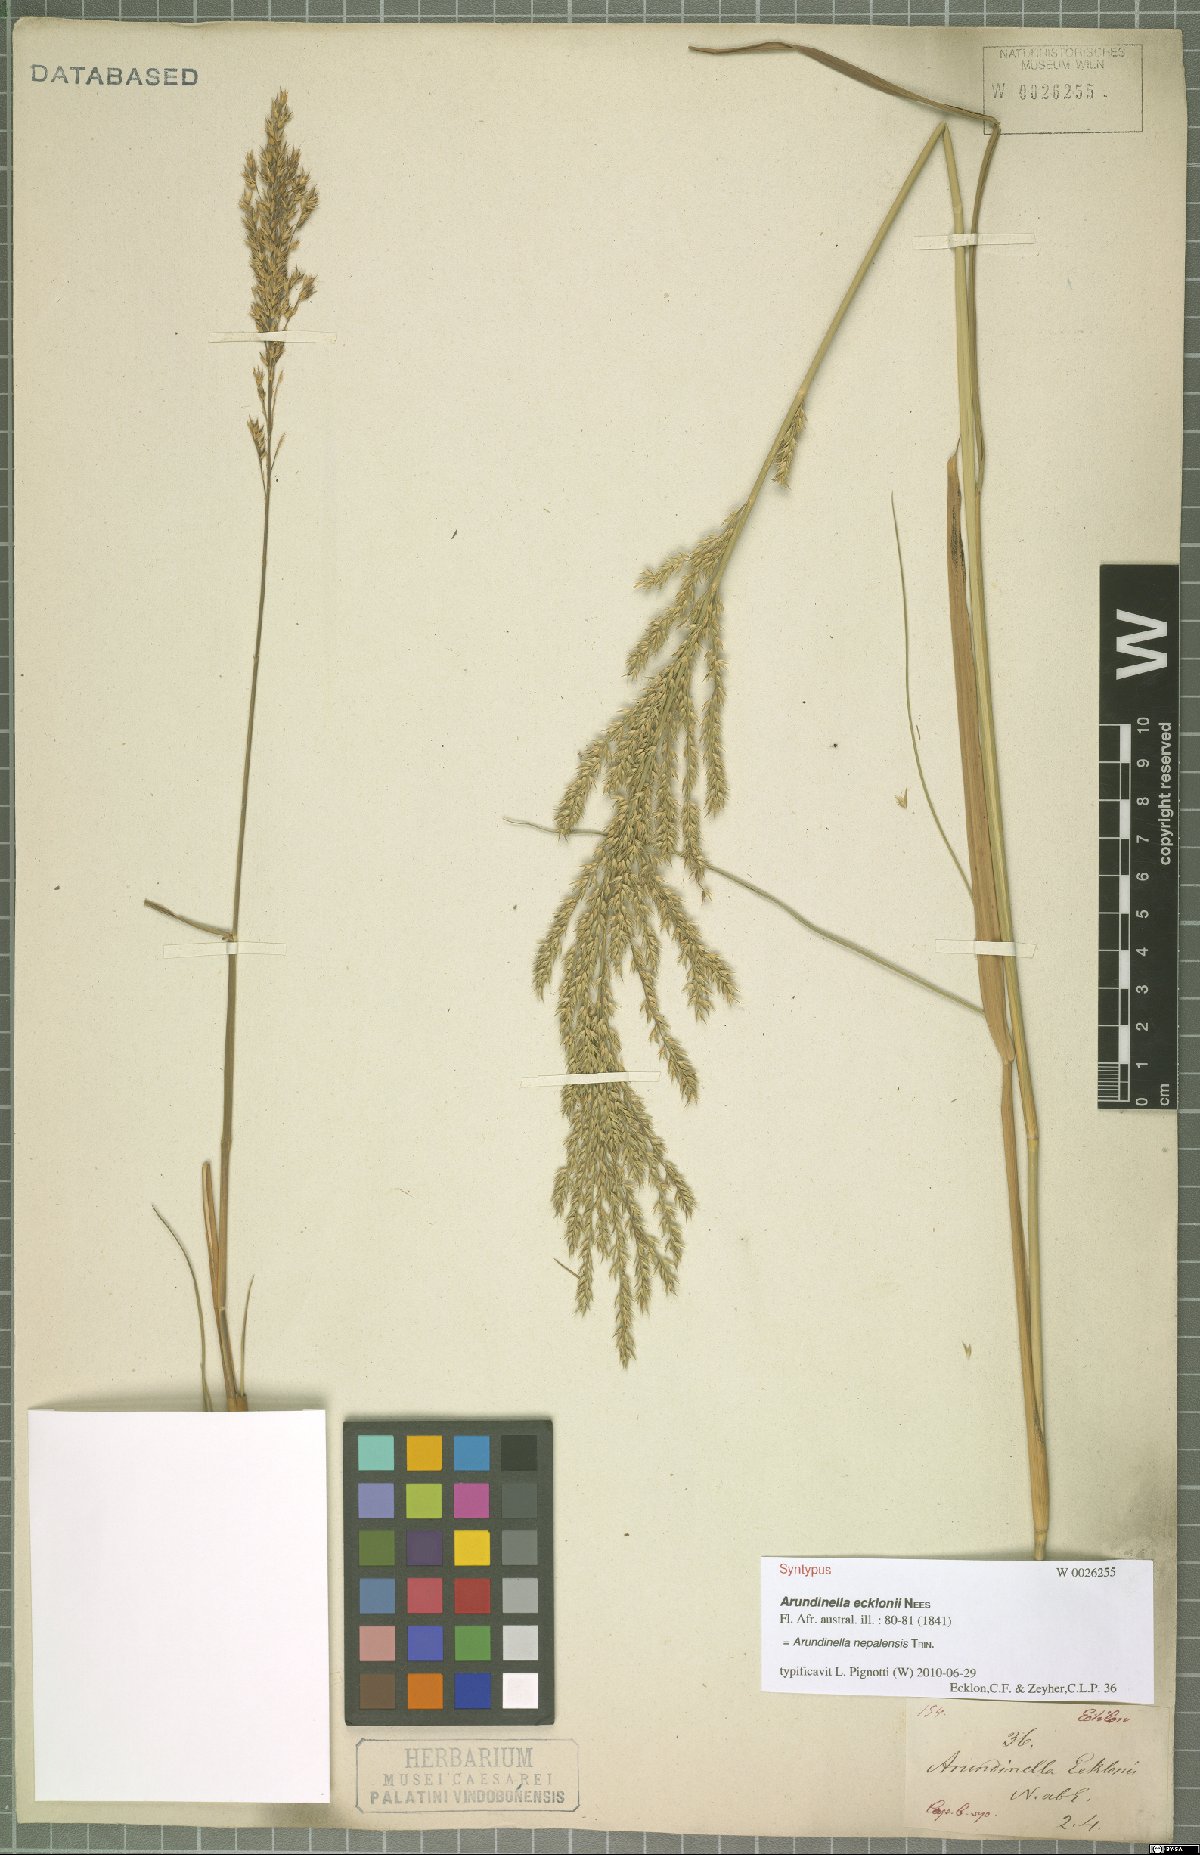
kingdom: Plantae
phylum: Tracheophyta
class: Liliopsida
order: Poales
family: Poaceae
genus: Arundinella
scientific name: Arundinella nepalensis
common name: Reed grass
